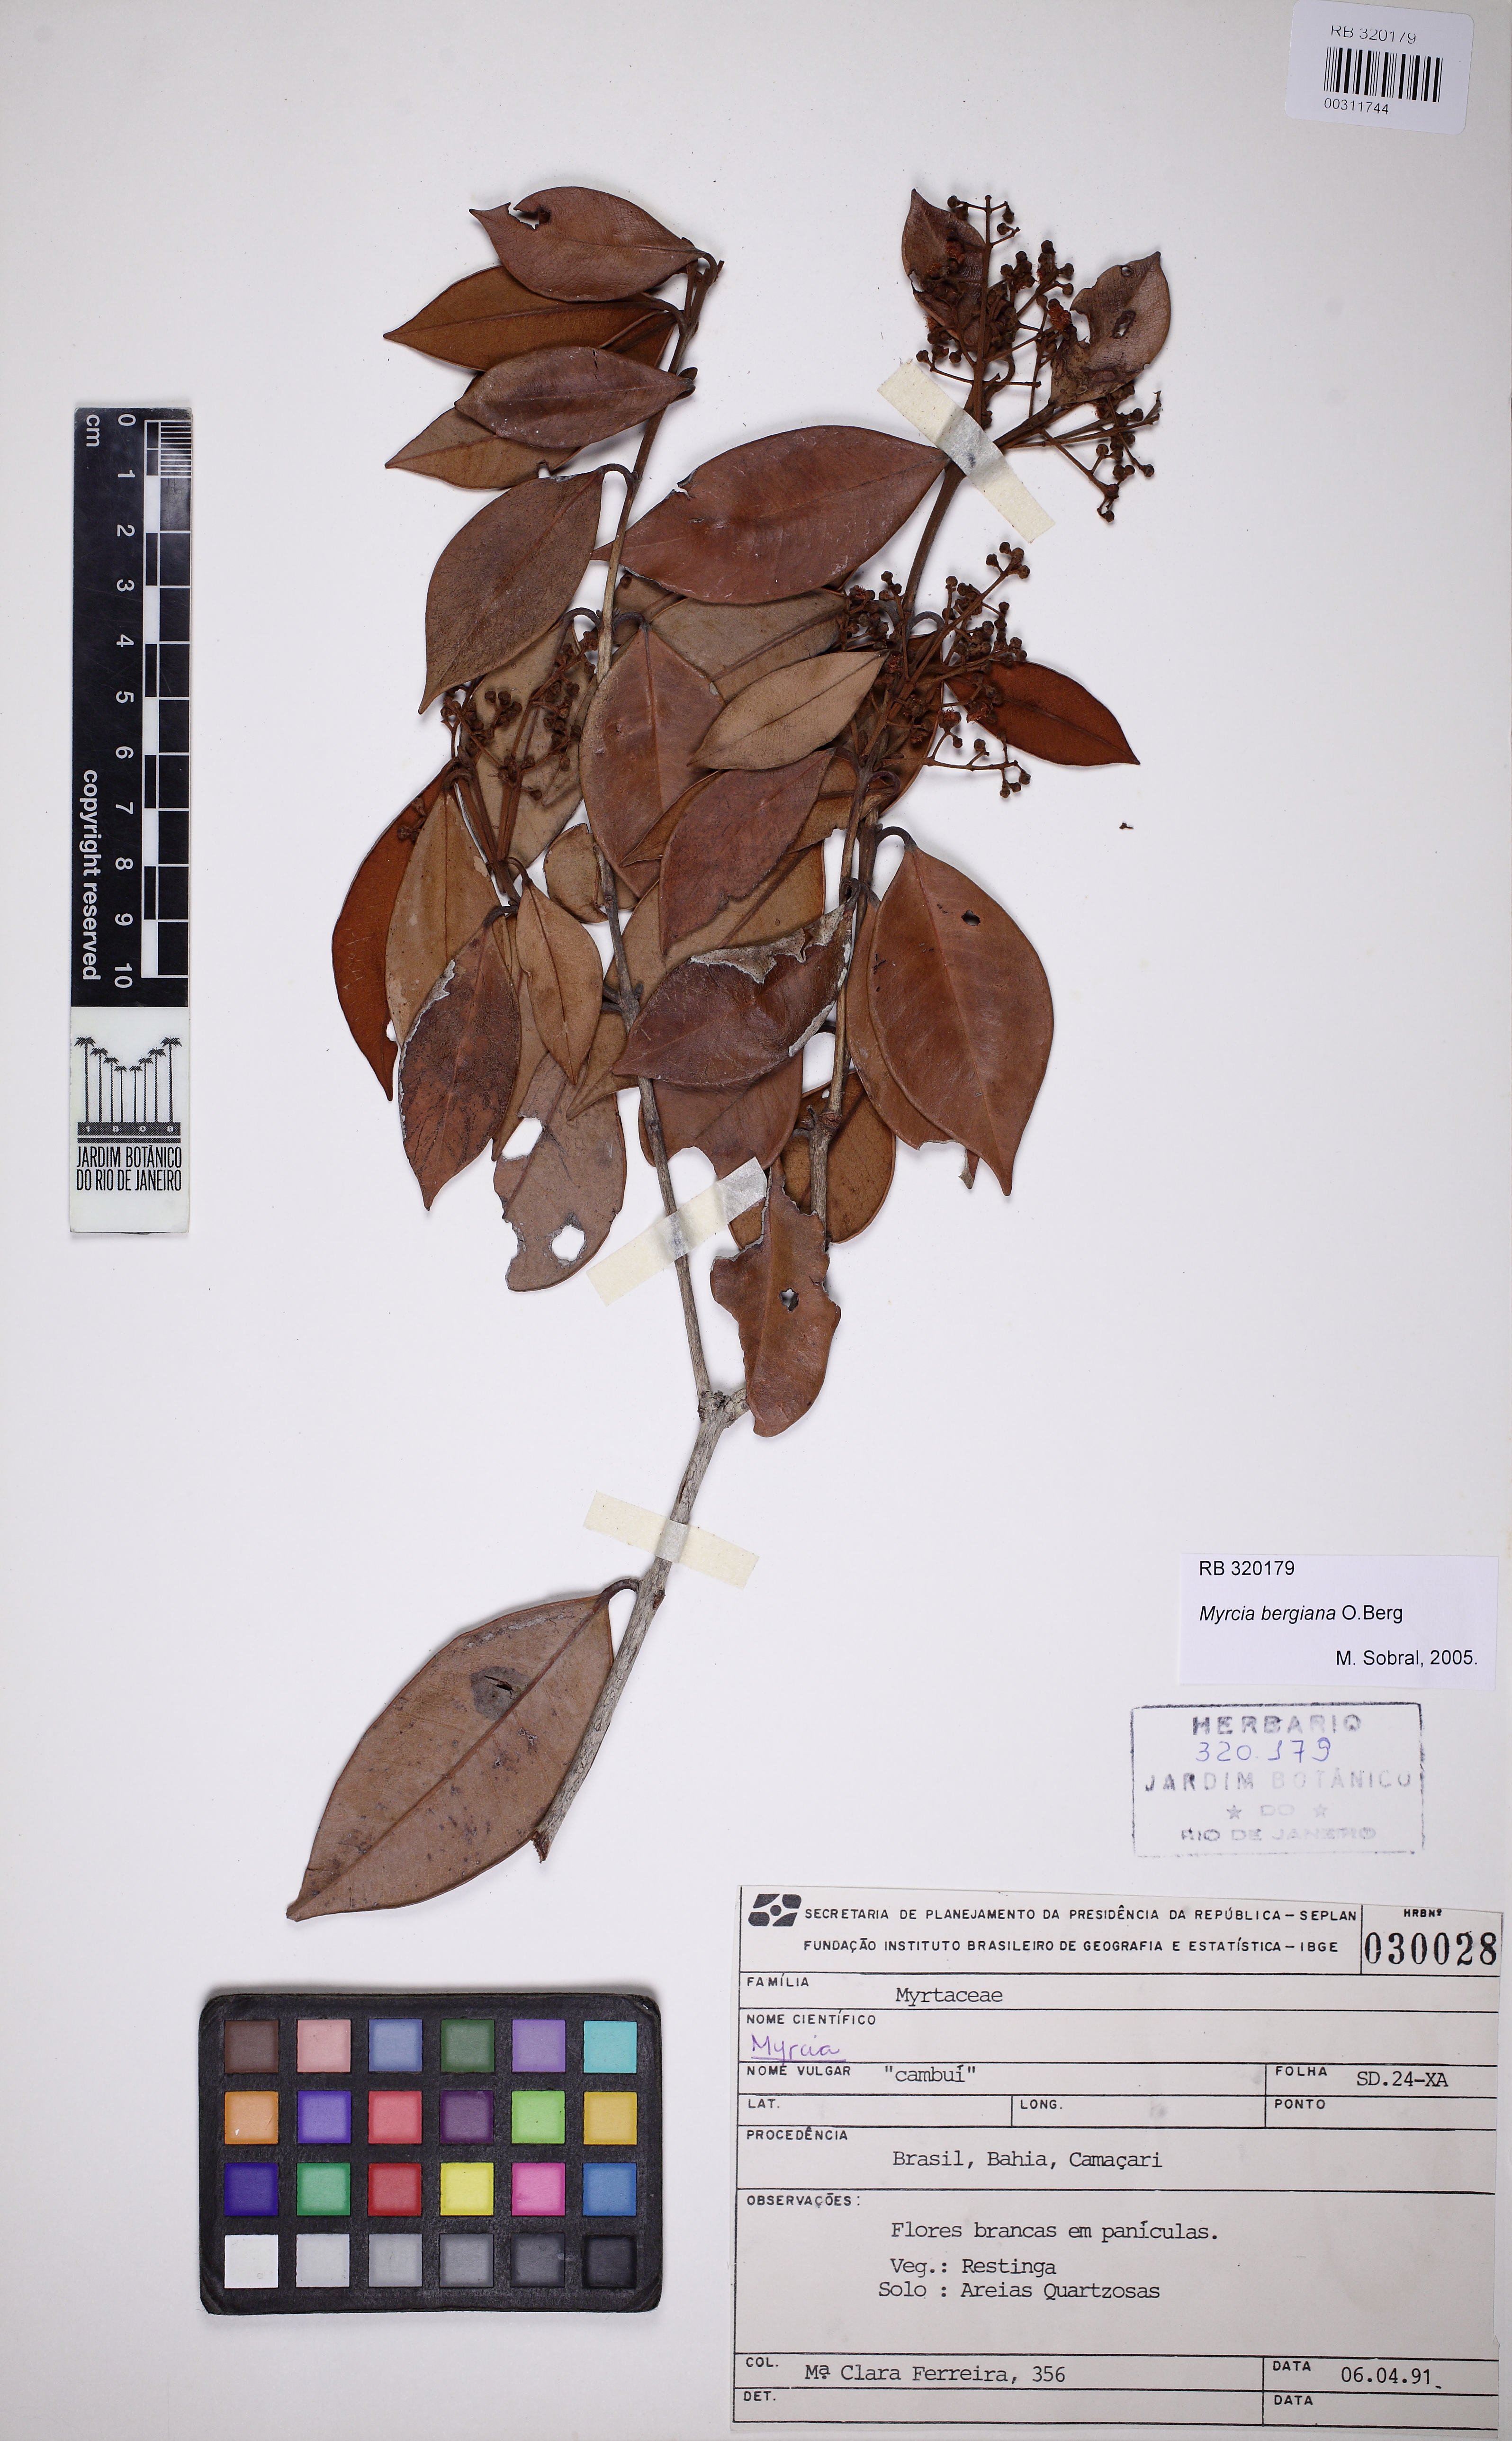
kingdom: Plantae
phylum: Tracheophyta
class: Magnoliopsida
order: Myrtales
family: Myrtaceae
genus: Myrcia
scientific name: Myrcia bergiana
